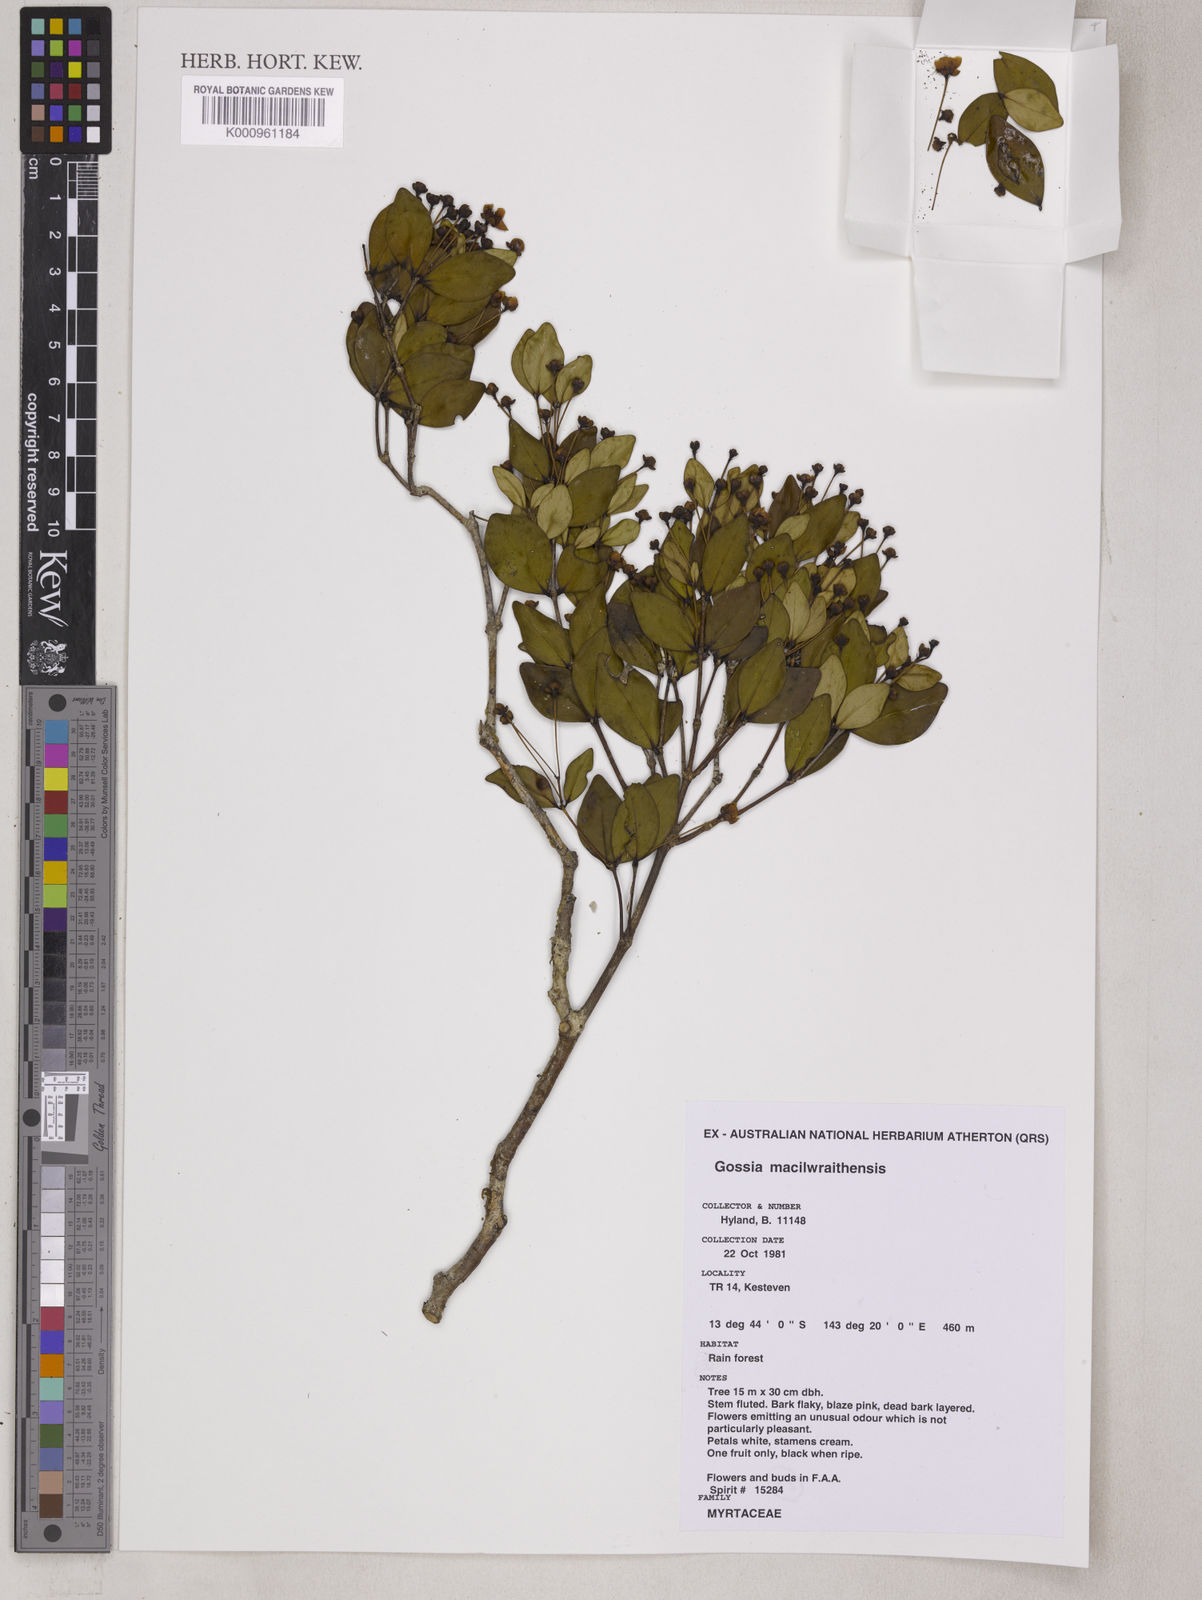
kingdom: Plantae
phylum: Tracheophyta
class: Magnoliopsida
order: Myrtales
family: Myrtaceae
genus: Gossia
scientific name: Gossia macilwraithensis
